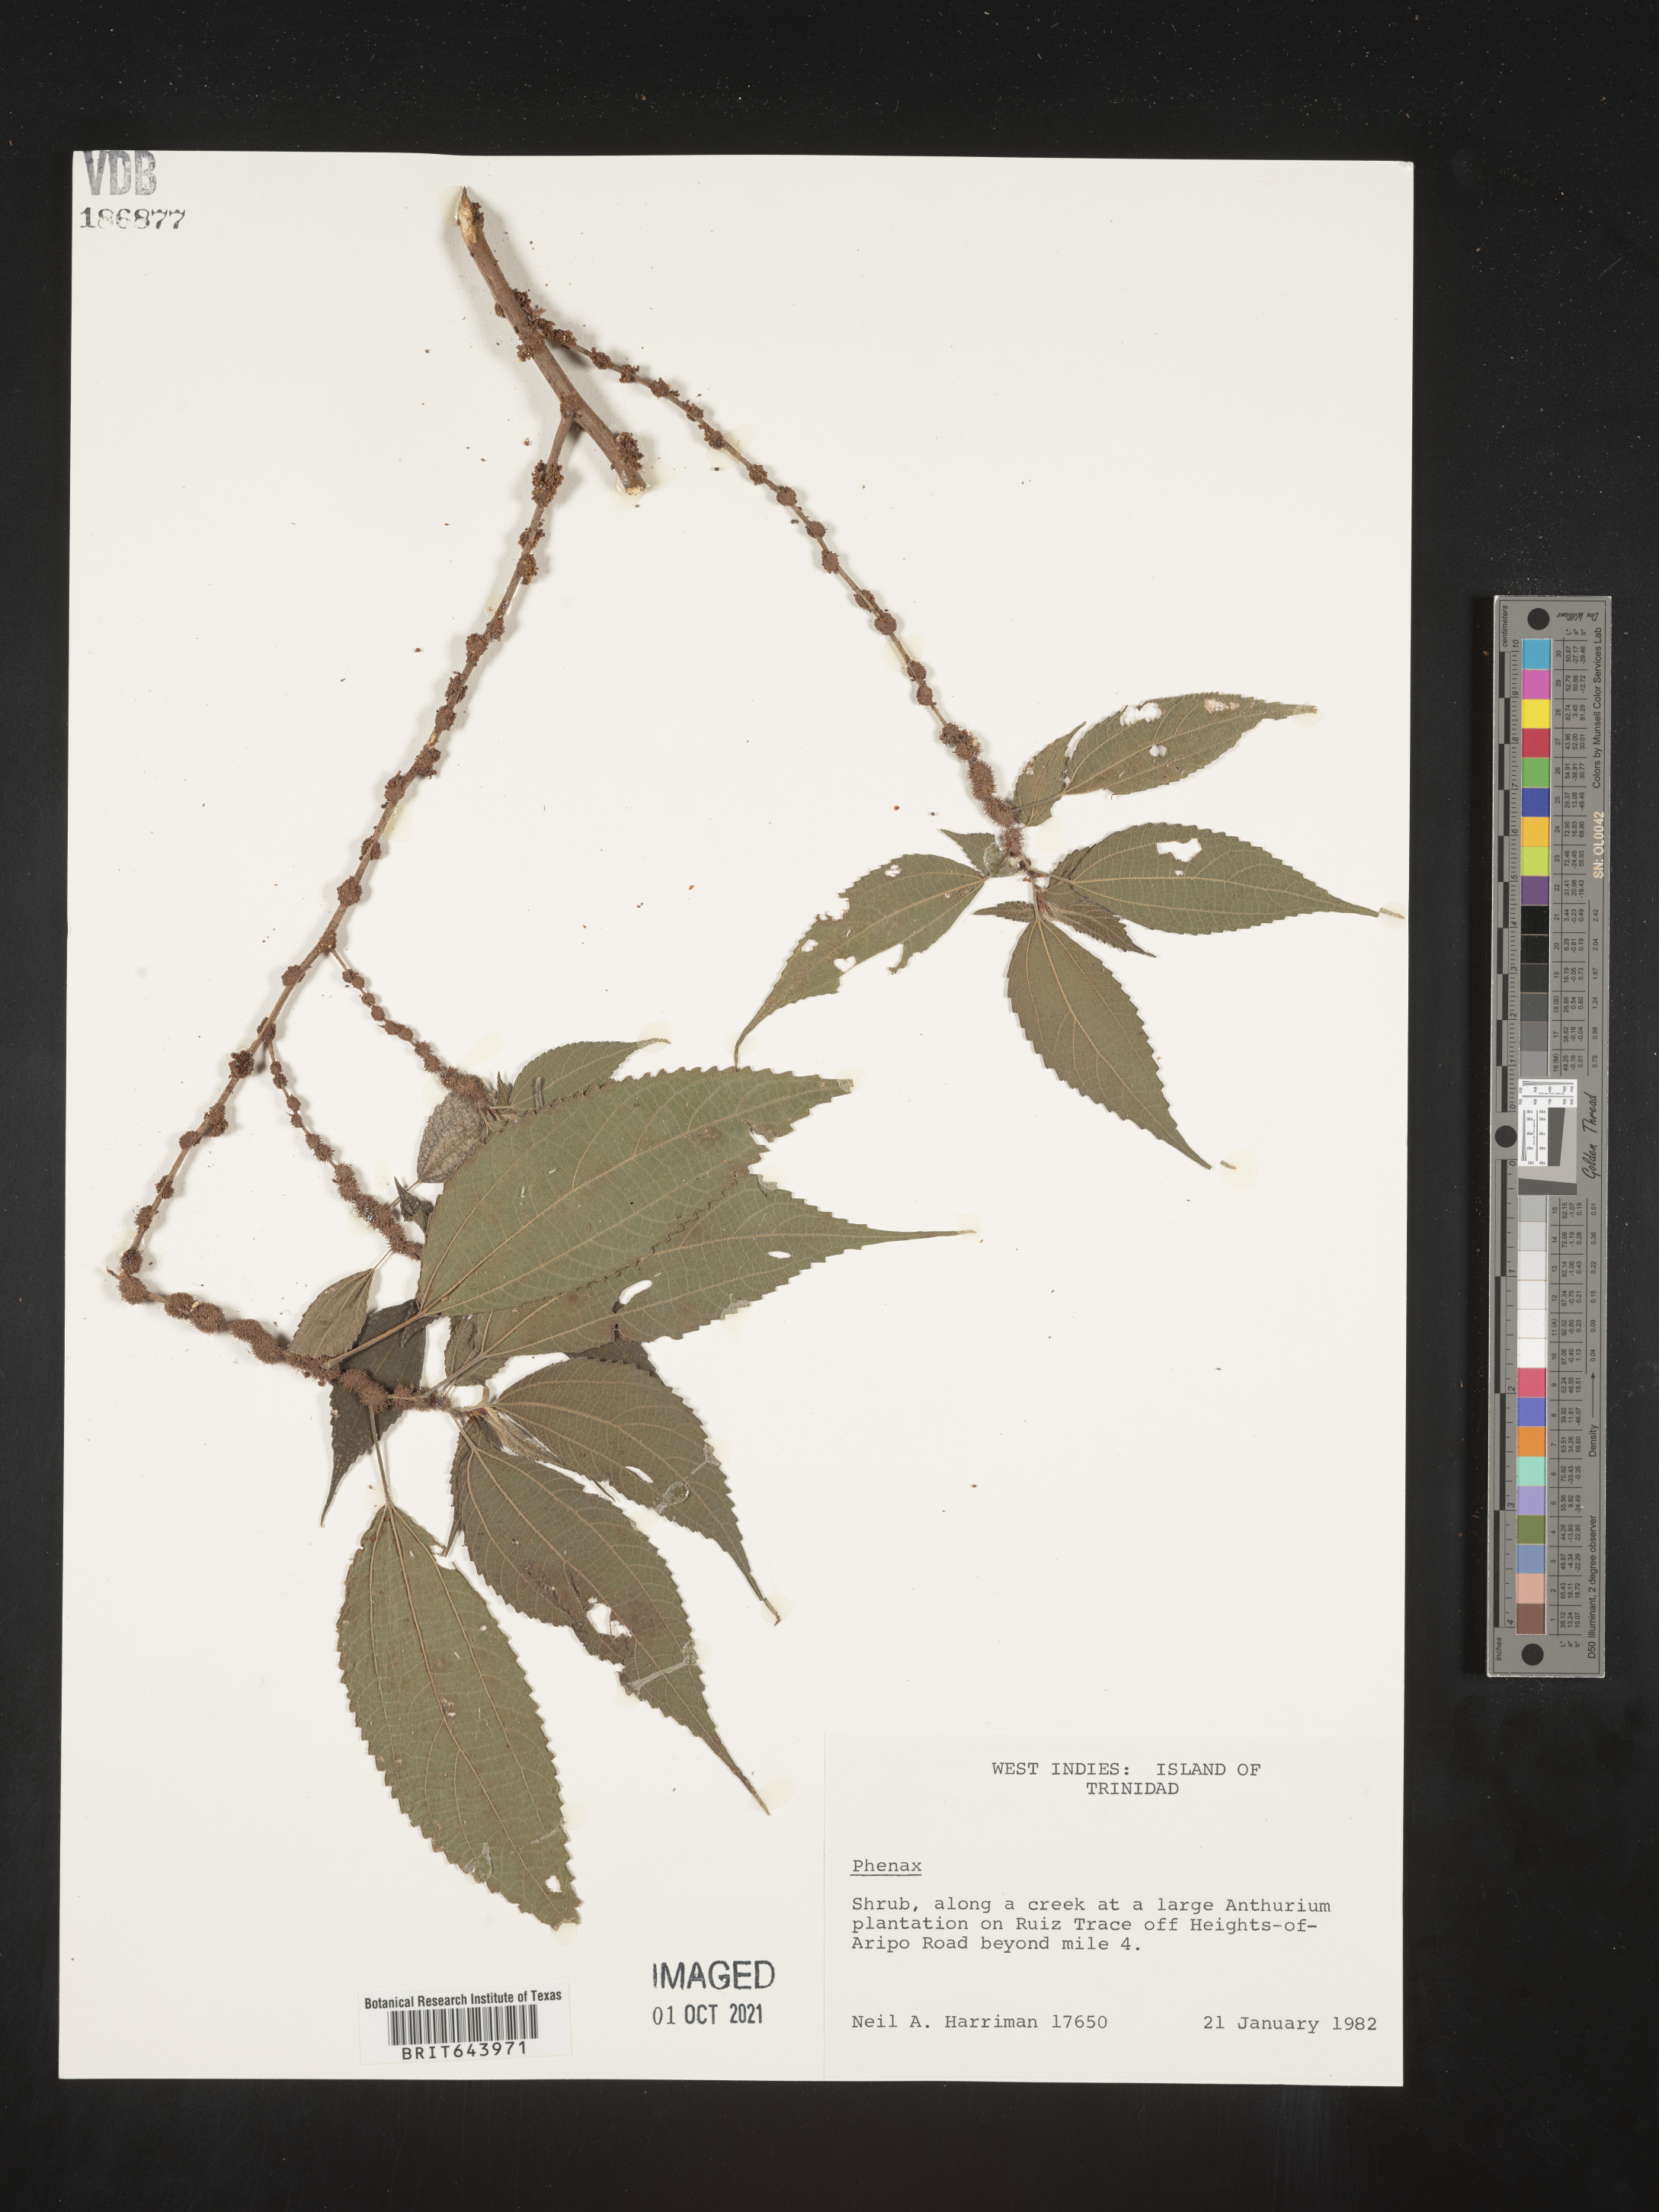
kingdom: Plantae
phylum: Tracheophyta
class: Magnoliopsida
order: Rosales
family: Urticaceae
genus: Phenax
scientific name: Phenax
